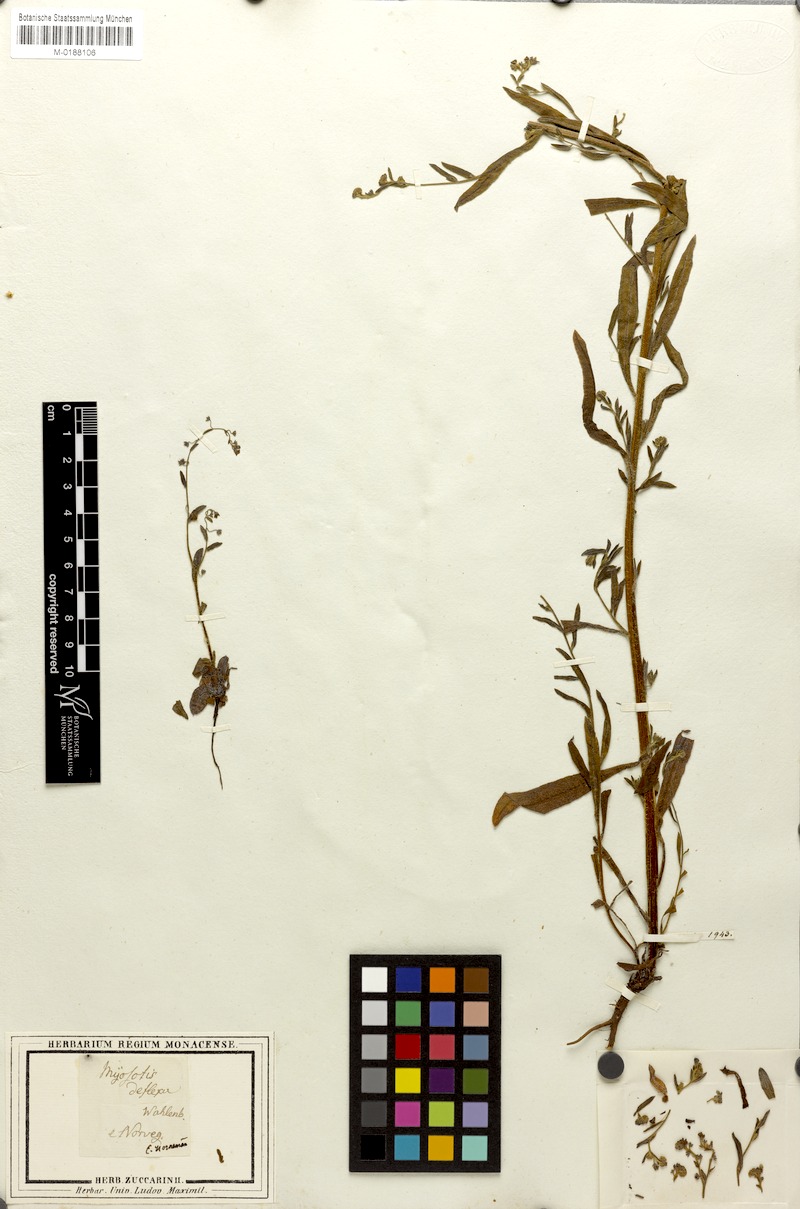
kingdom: Plantae
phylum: Tracheophyta
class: Magnoliopsida
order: Boraginales
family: Boraginaceae
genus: Hackelia
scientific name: Hackelia deflexa
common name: Nodding stickseed
